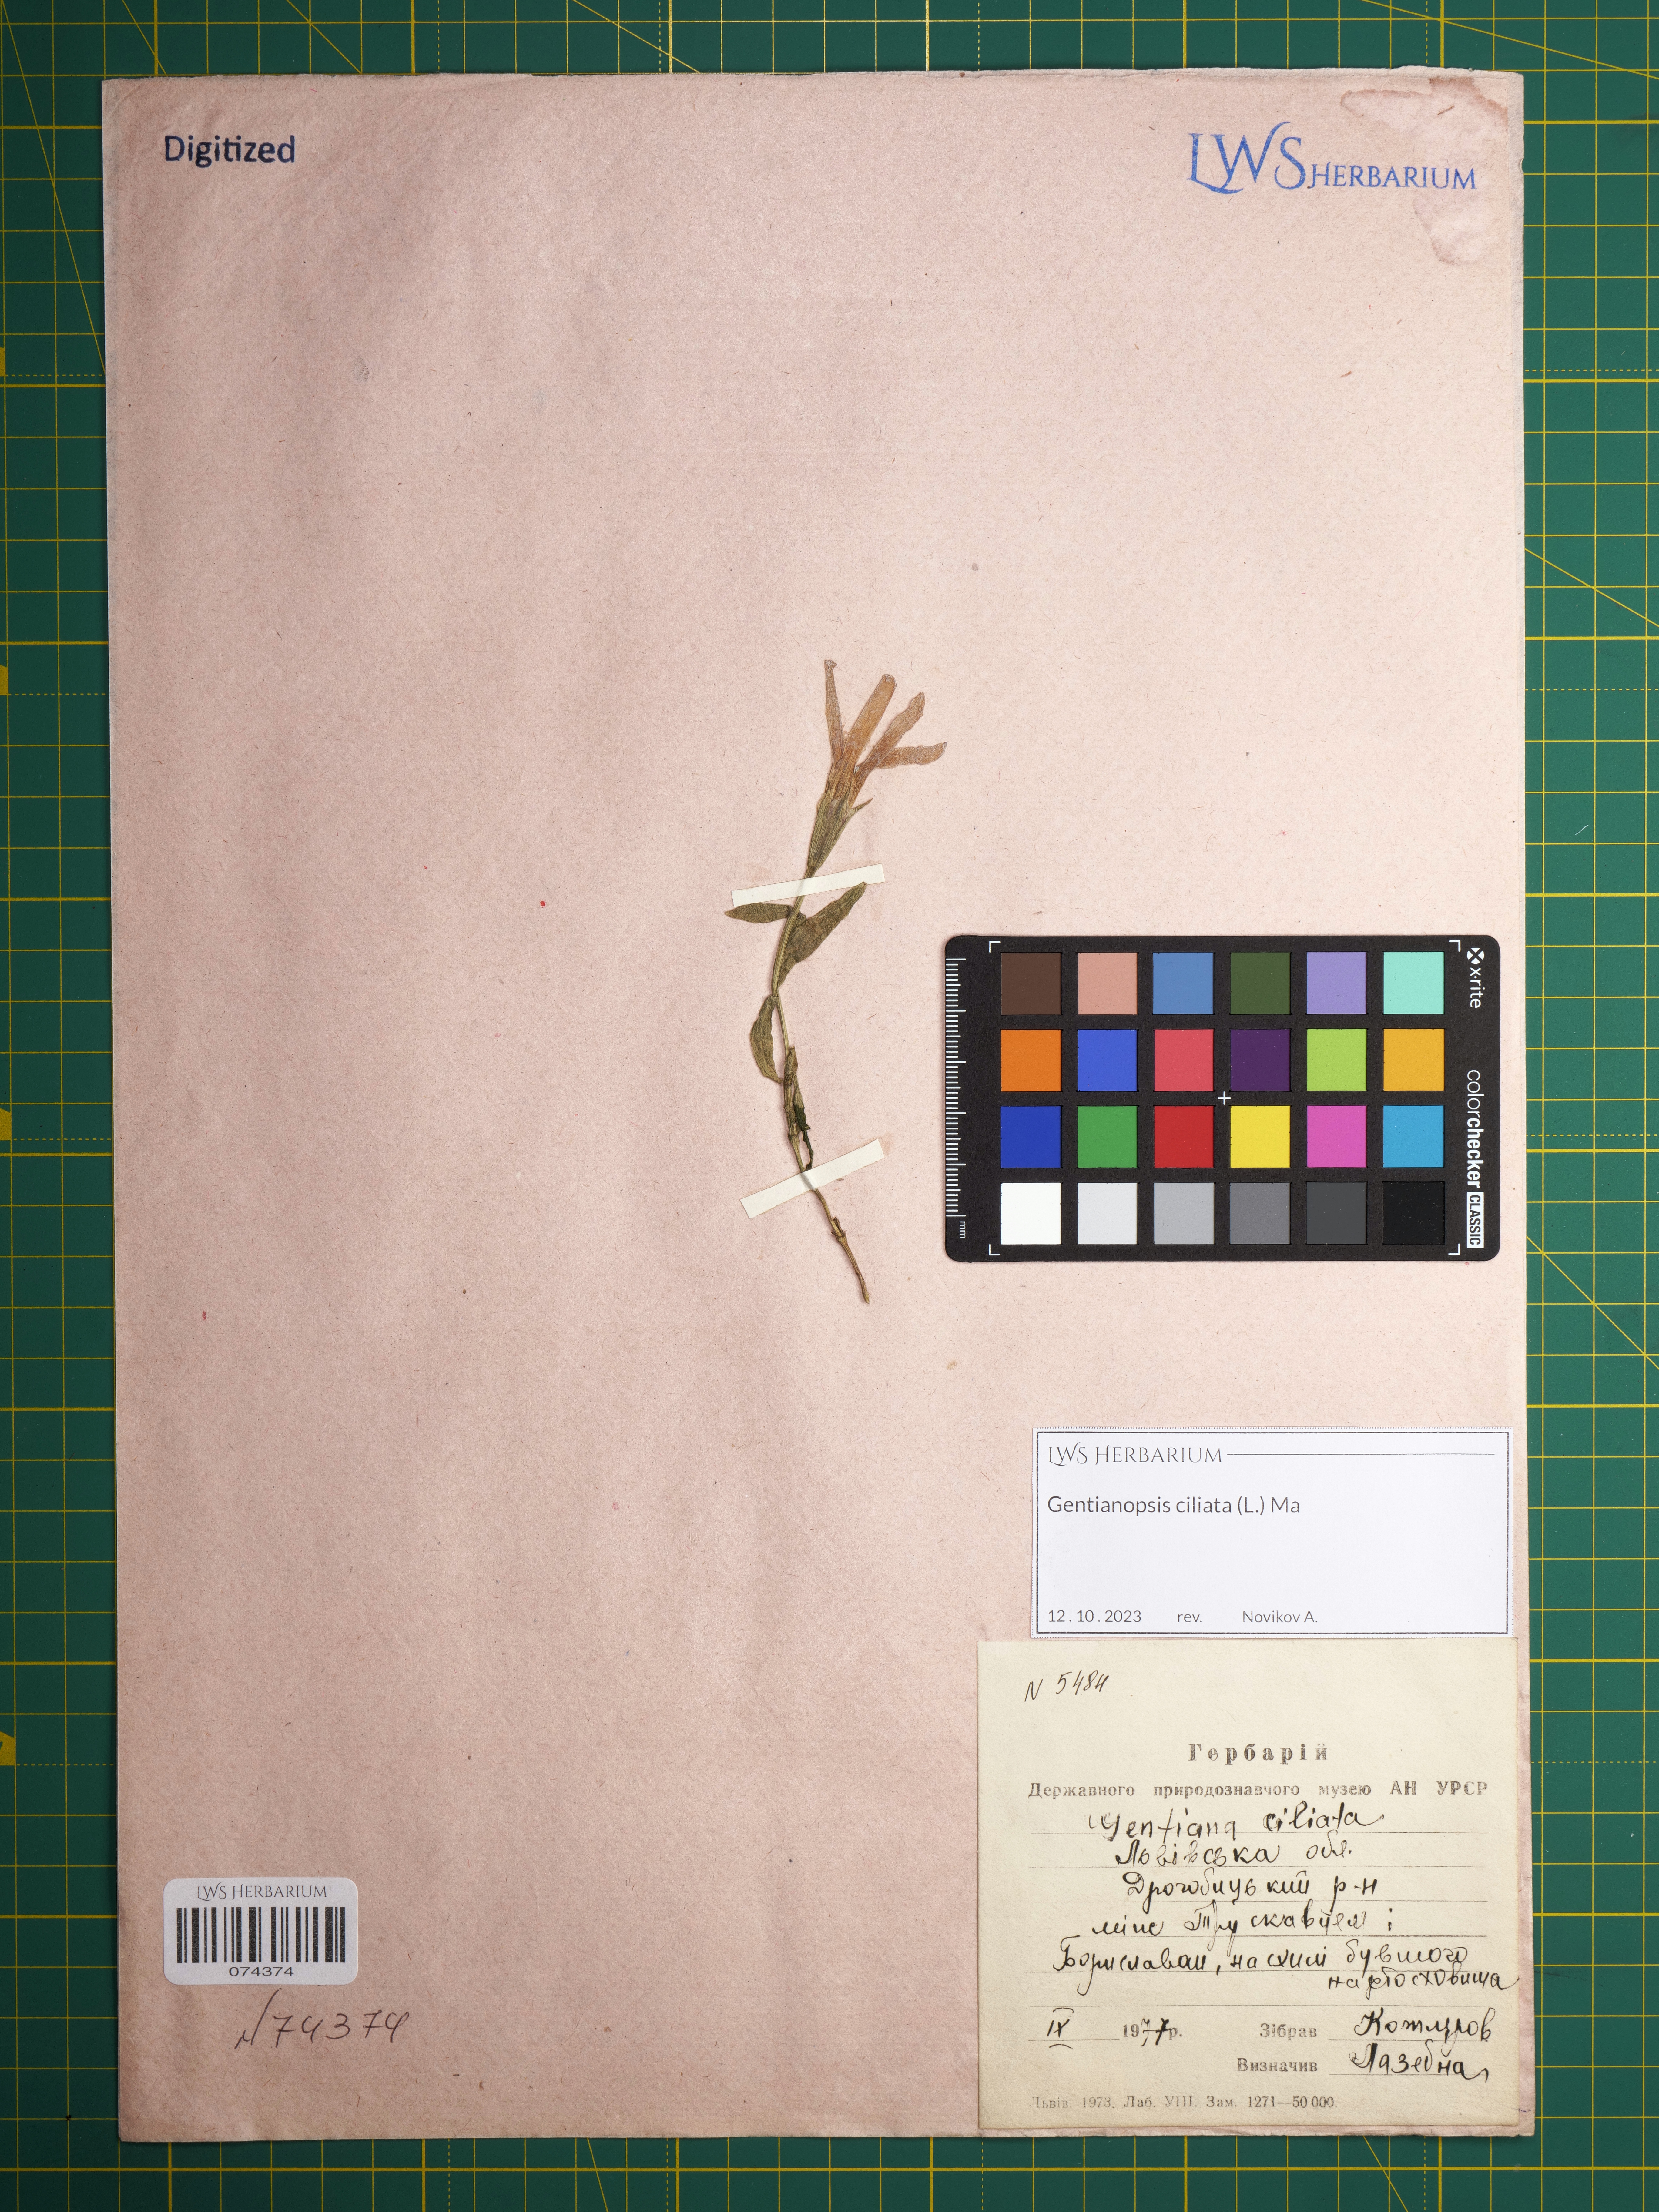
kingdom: Plantae
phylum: Tracheophyta
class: Magnoliopsida
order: Gentianales
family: Gentianaceae
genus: Gentianopsis
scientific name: Gentianopsis ciliata
